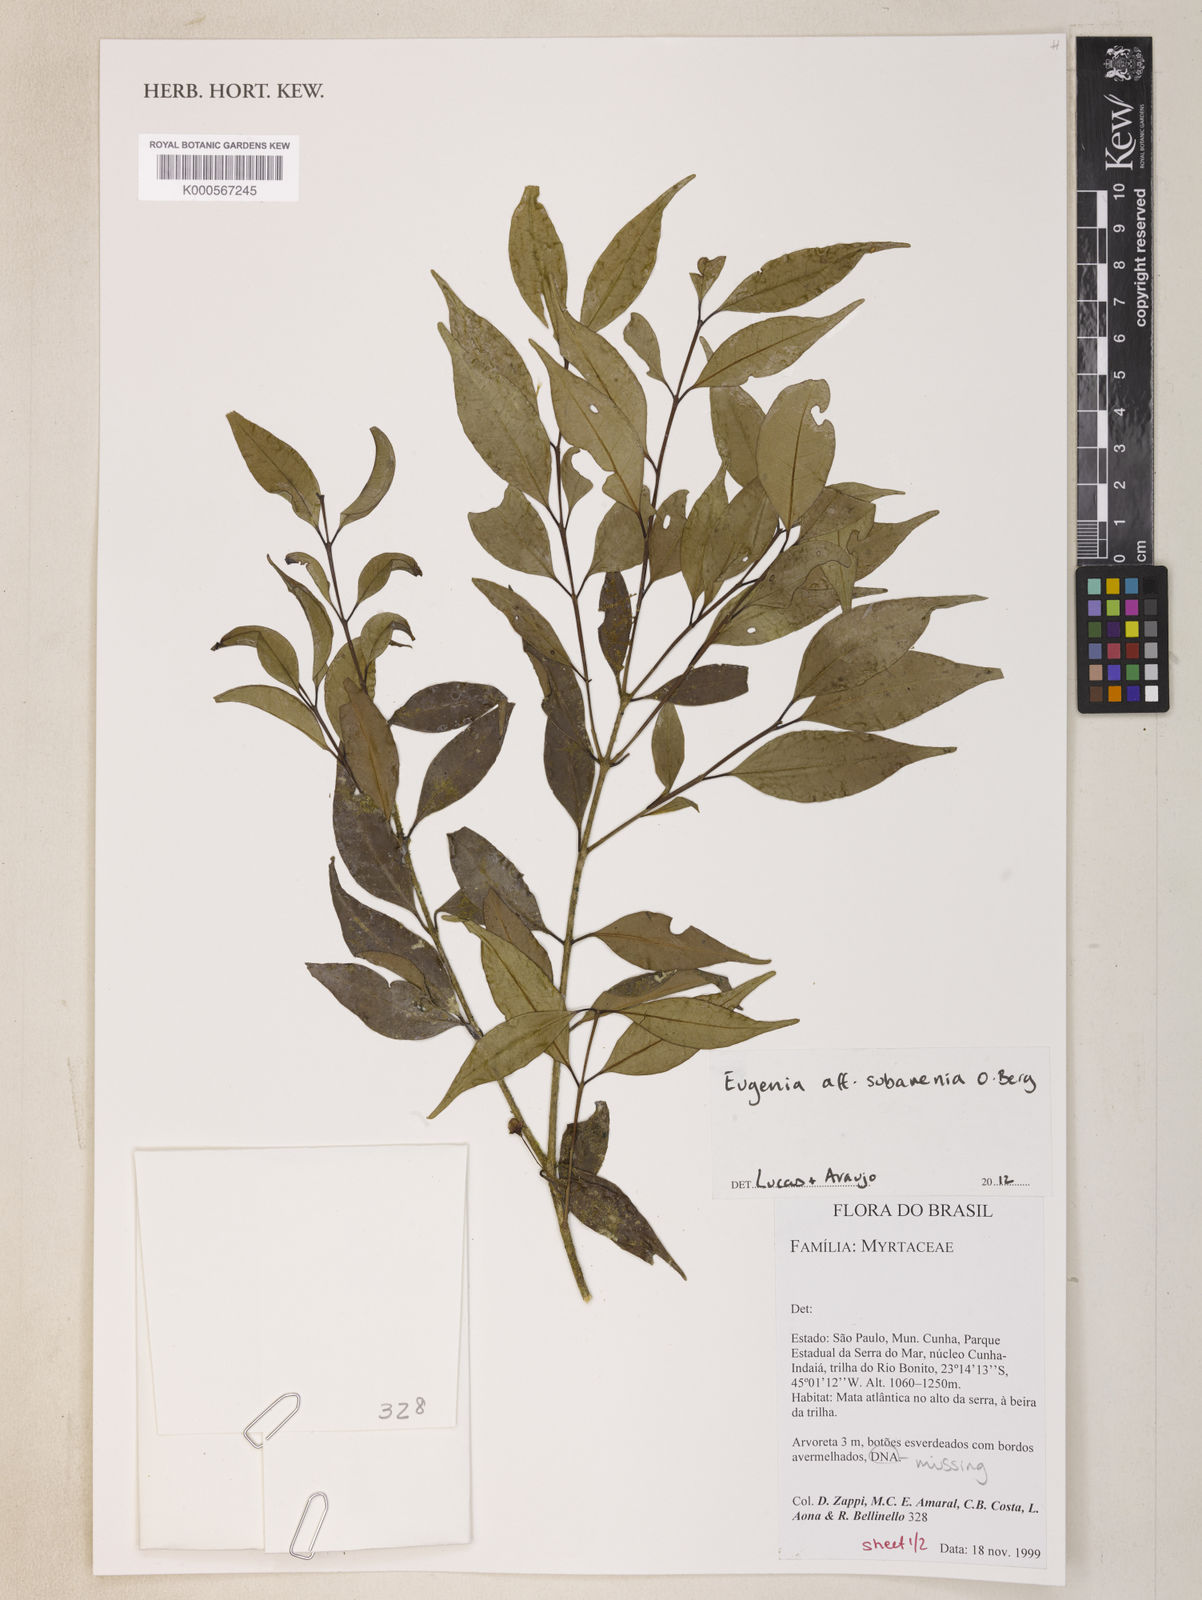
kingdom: Plantae
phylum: Tracheophyta
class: Magnoliopsida
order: Myrtales
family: Myrtaceae
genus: Eugenia
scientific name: Eugenia subavenia
